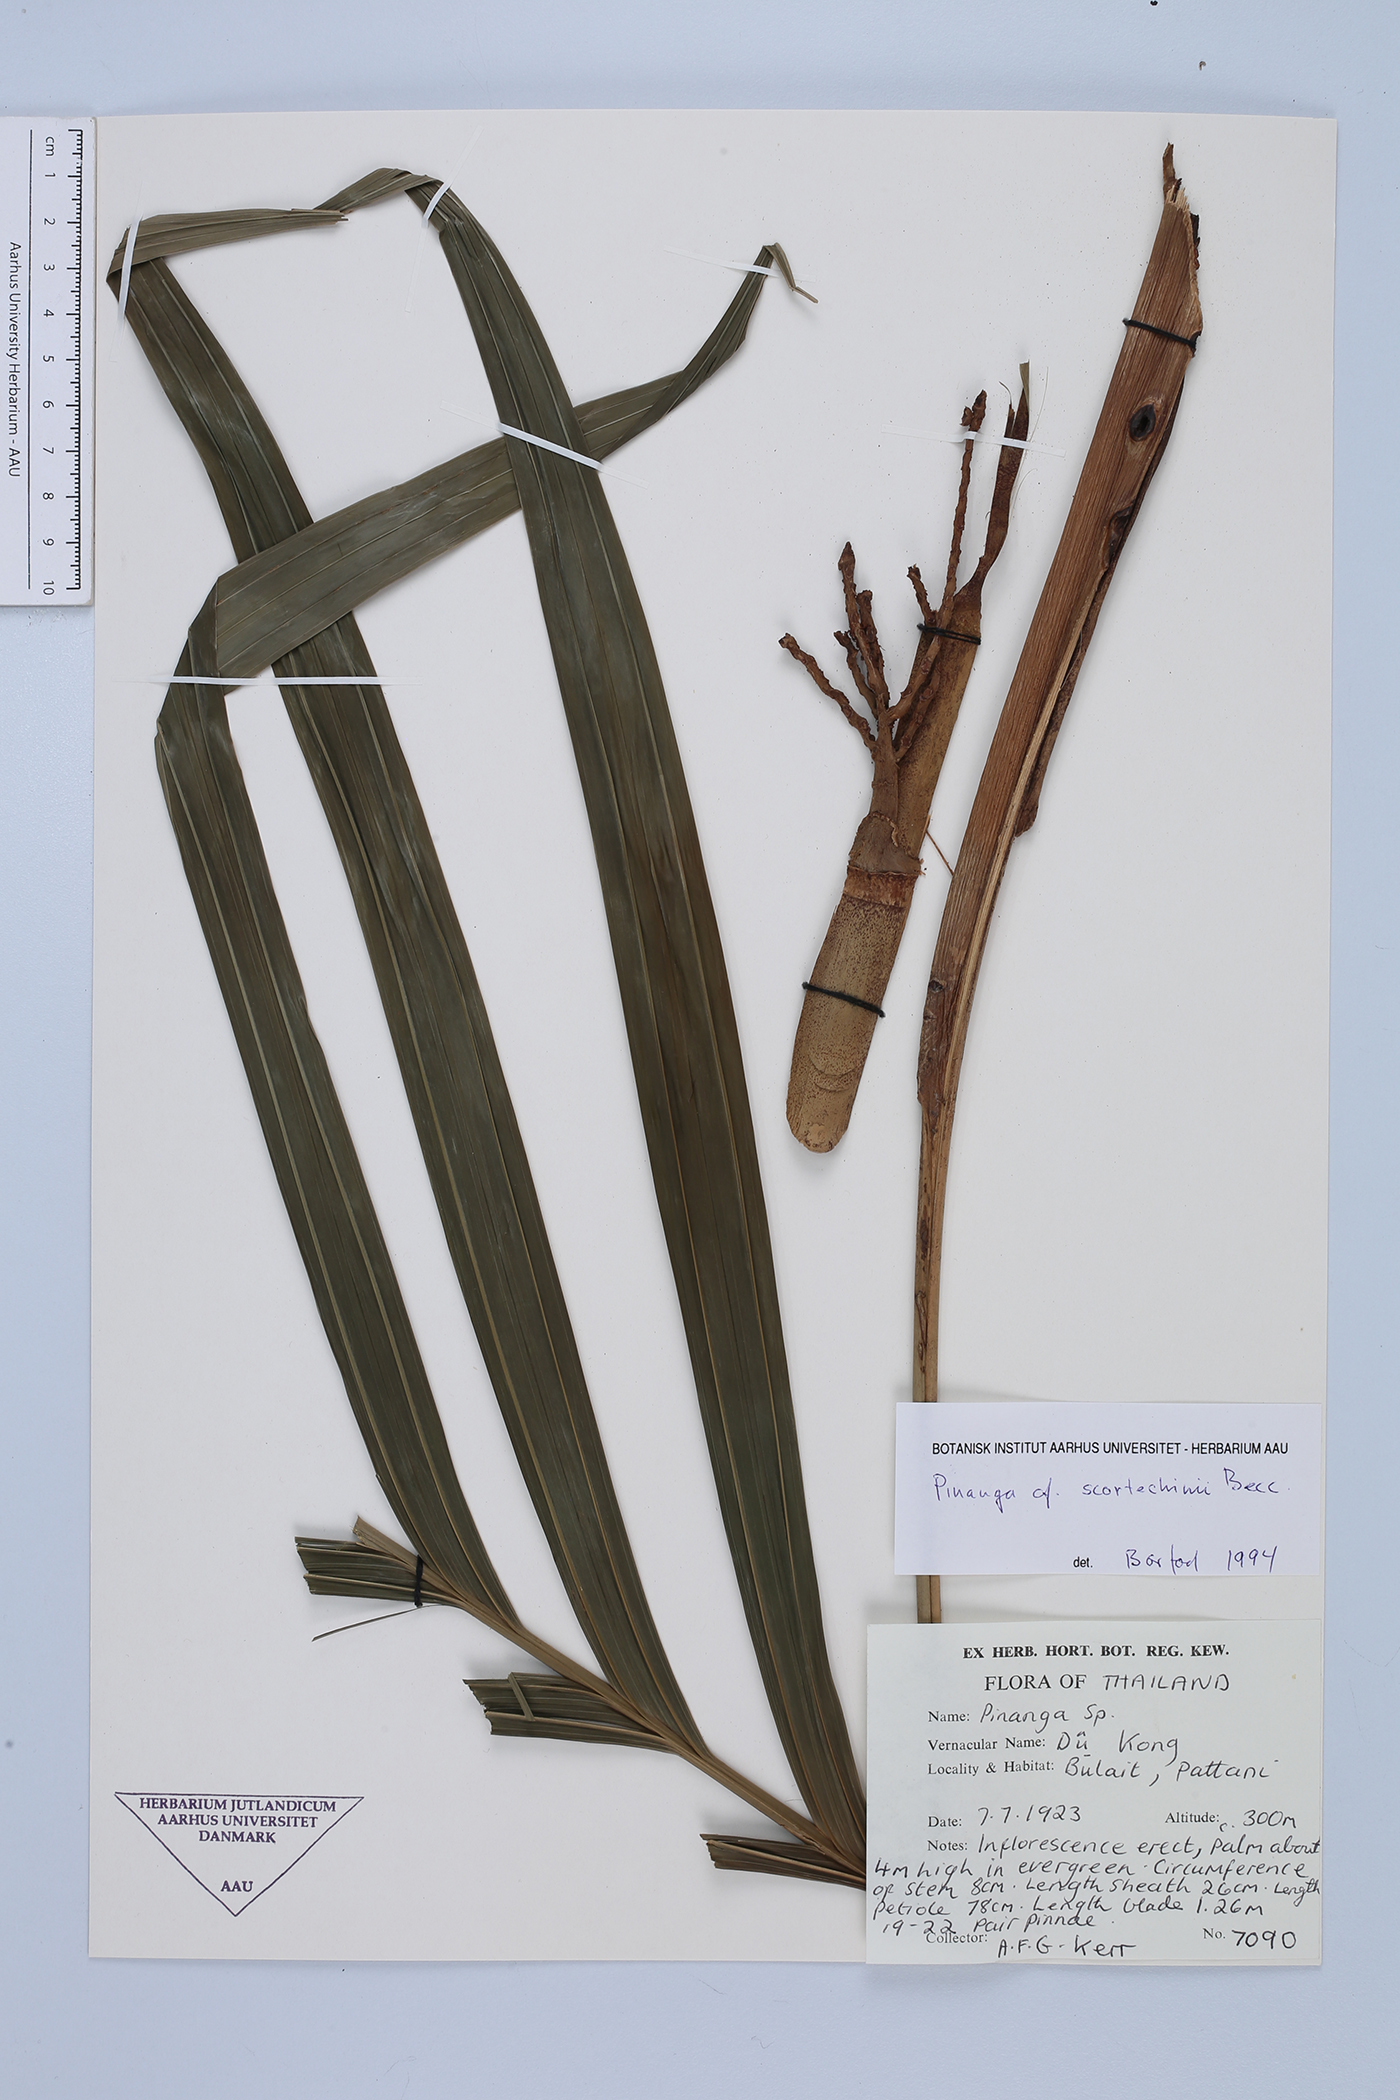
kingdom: Plantae
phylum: Tracheophyta
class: Liliopsida
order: Arecales
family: Arecaceae
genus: Pinanga
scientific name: Pinanga scortechinii
